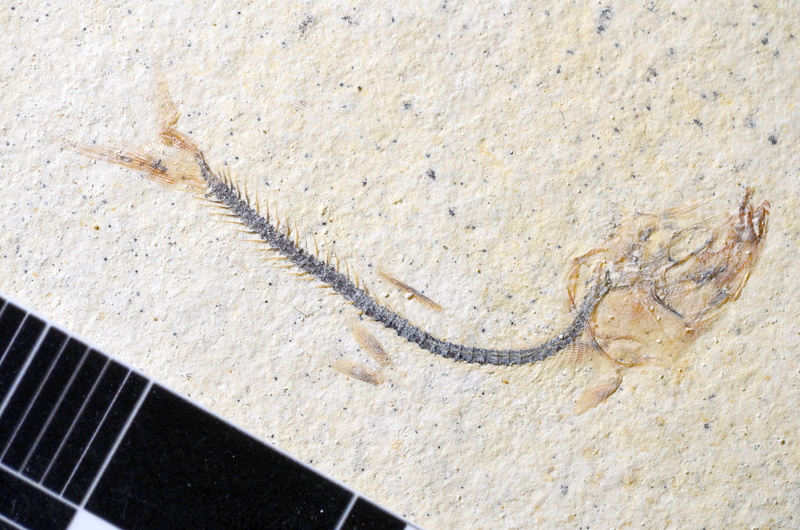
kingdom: Animalia
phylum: Chordata
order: Salmoniformes
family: Orthogonikleithridae
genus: Orthogonikleithrus
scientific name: Orthogonikleithrus hoelli
